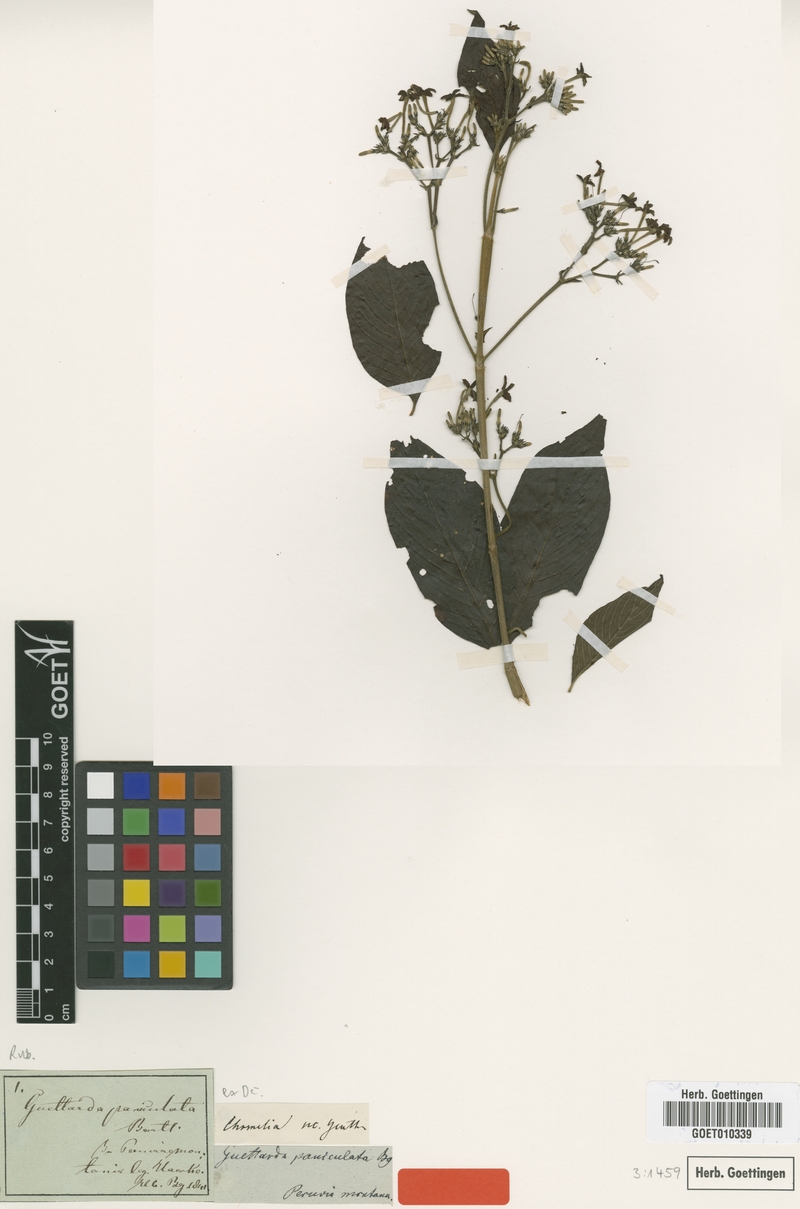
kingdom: Plantae
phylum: Tracheophyta
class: Magnoliopsida
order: Gentianales
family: Rubiaceae
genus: Chomelia
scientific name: Chomelia paniculata
